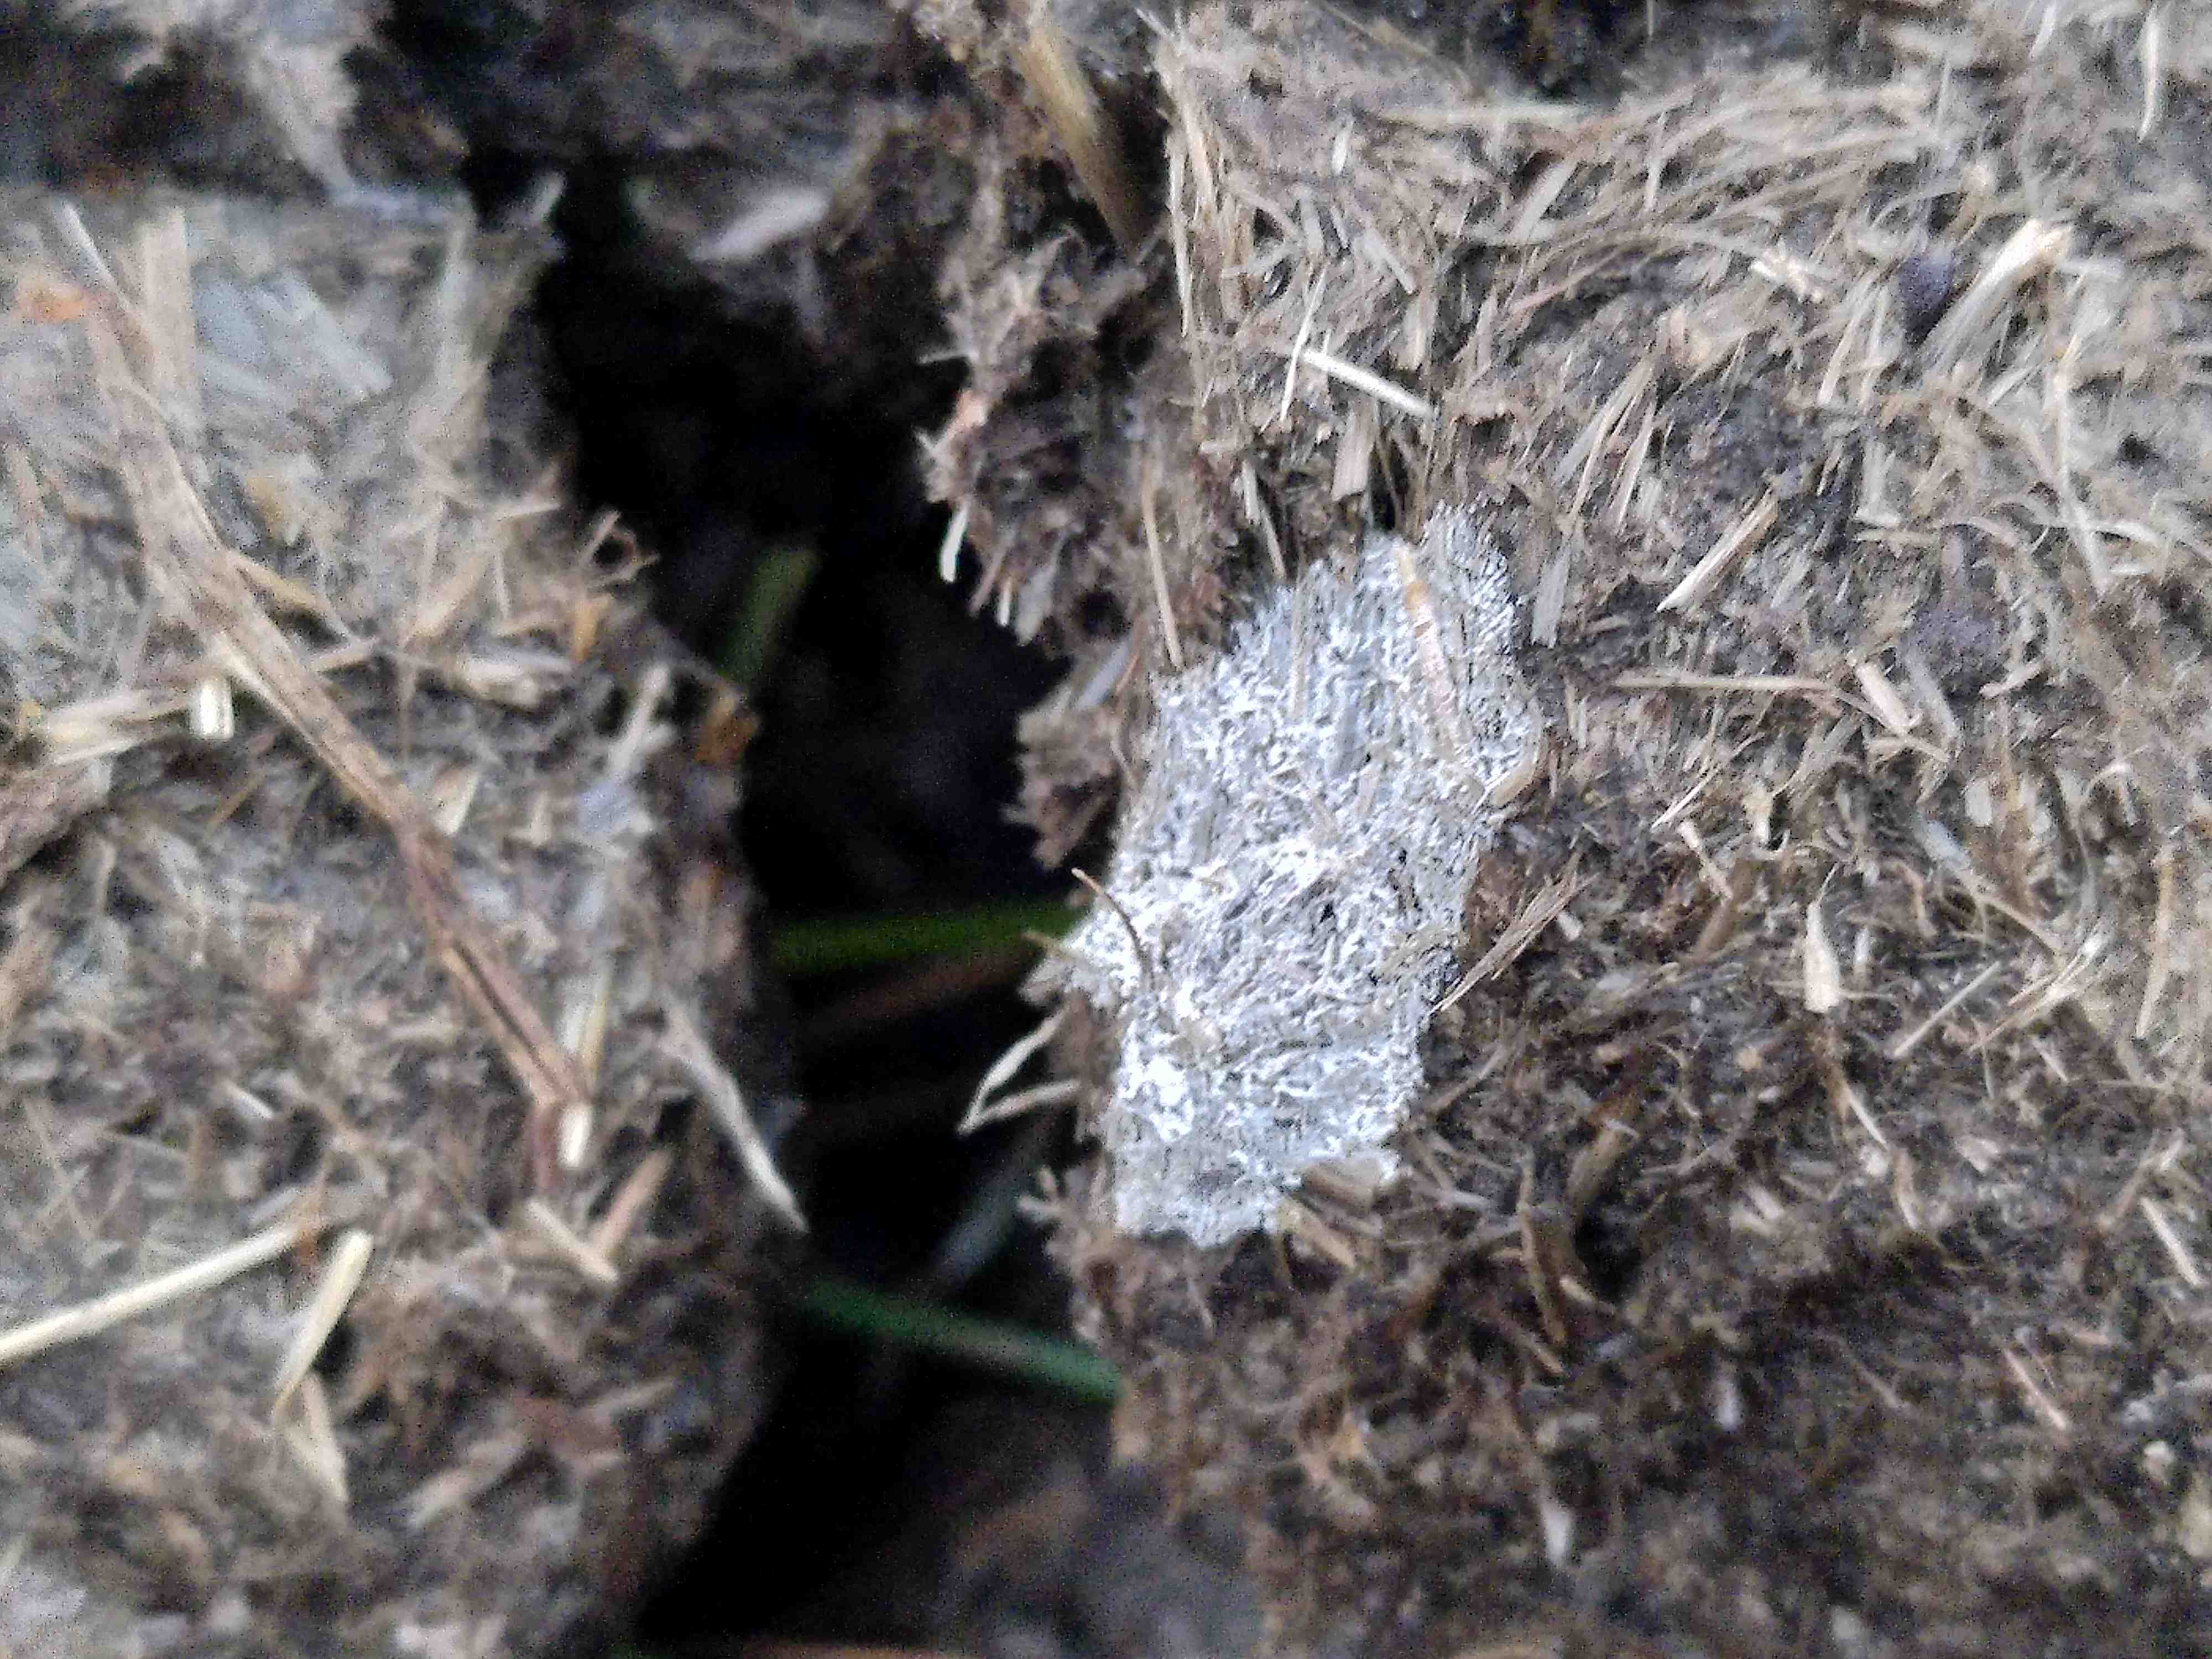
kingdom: Fungi
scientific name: Fungi
